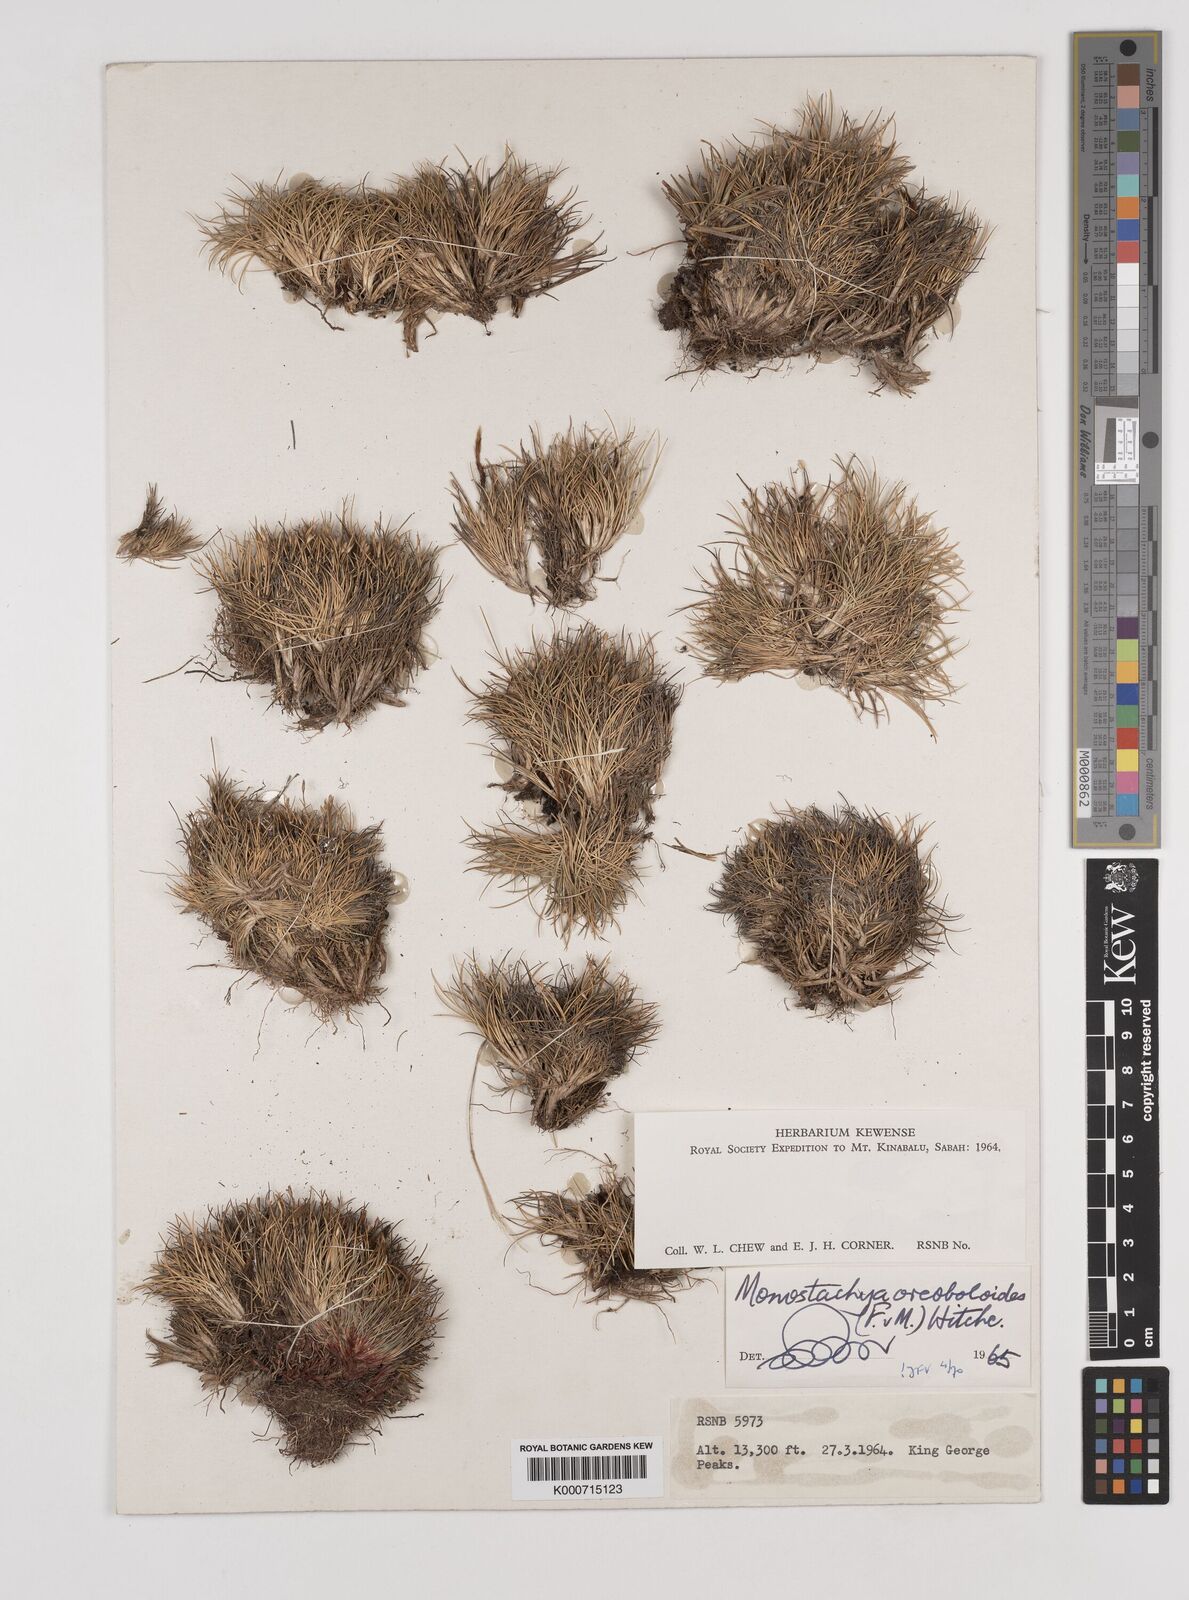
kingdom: Plantae
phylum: Tracheophyta
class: Liliopsida
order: Poales
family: Poaceae
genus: Rytidosperma
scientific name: Rytidosperma oreoboloides
